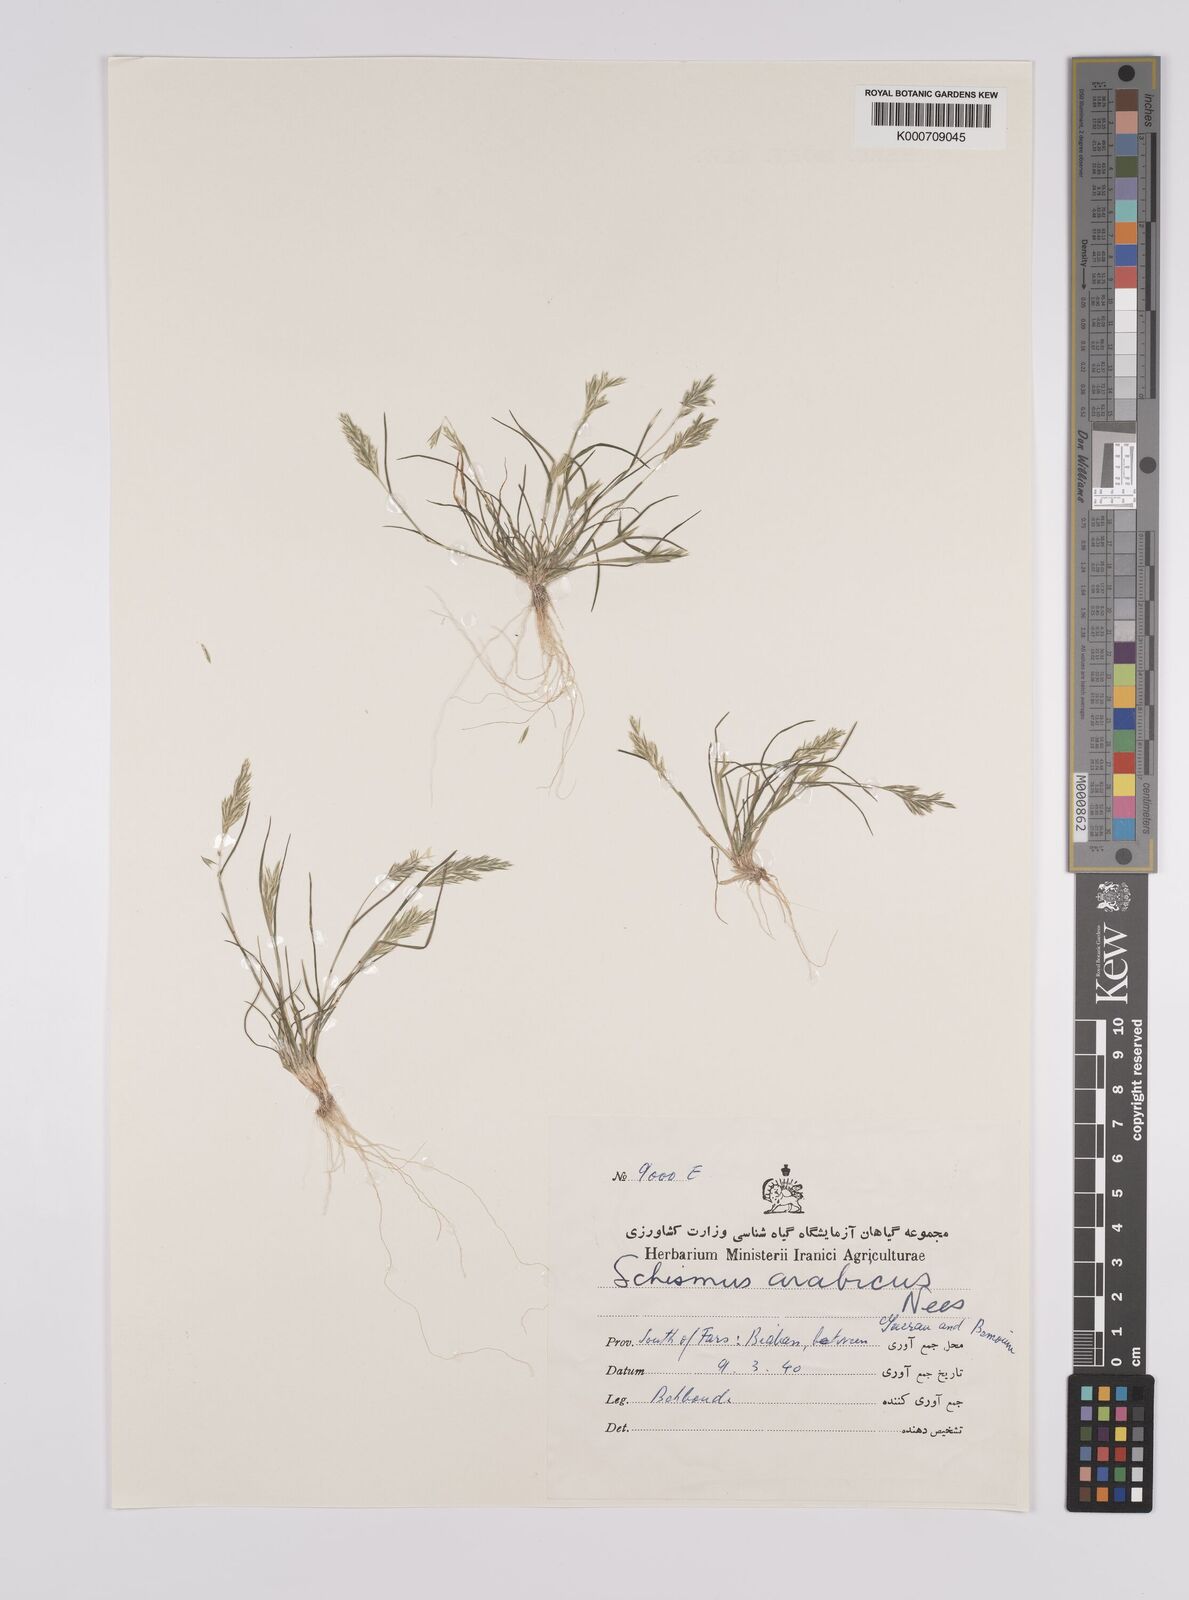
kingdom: Plantae
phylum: Tracheophyta
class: Liliopsida
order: Poales
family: Poaceae
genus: Schismus
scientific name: Schismus arabicus
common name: Arabian schismus
